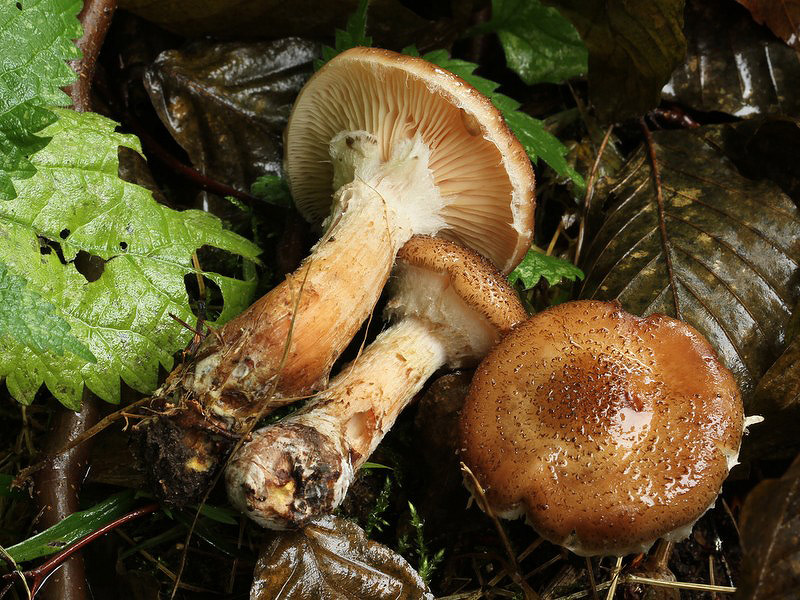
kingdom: Fungi
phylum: Basidiomycota
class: Agaricomycetes
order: Agaricales
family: Physalacriaceae
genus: Armillaria
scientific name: Armillaria lutea
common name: køllestokket honningsvamp
